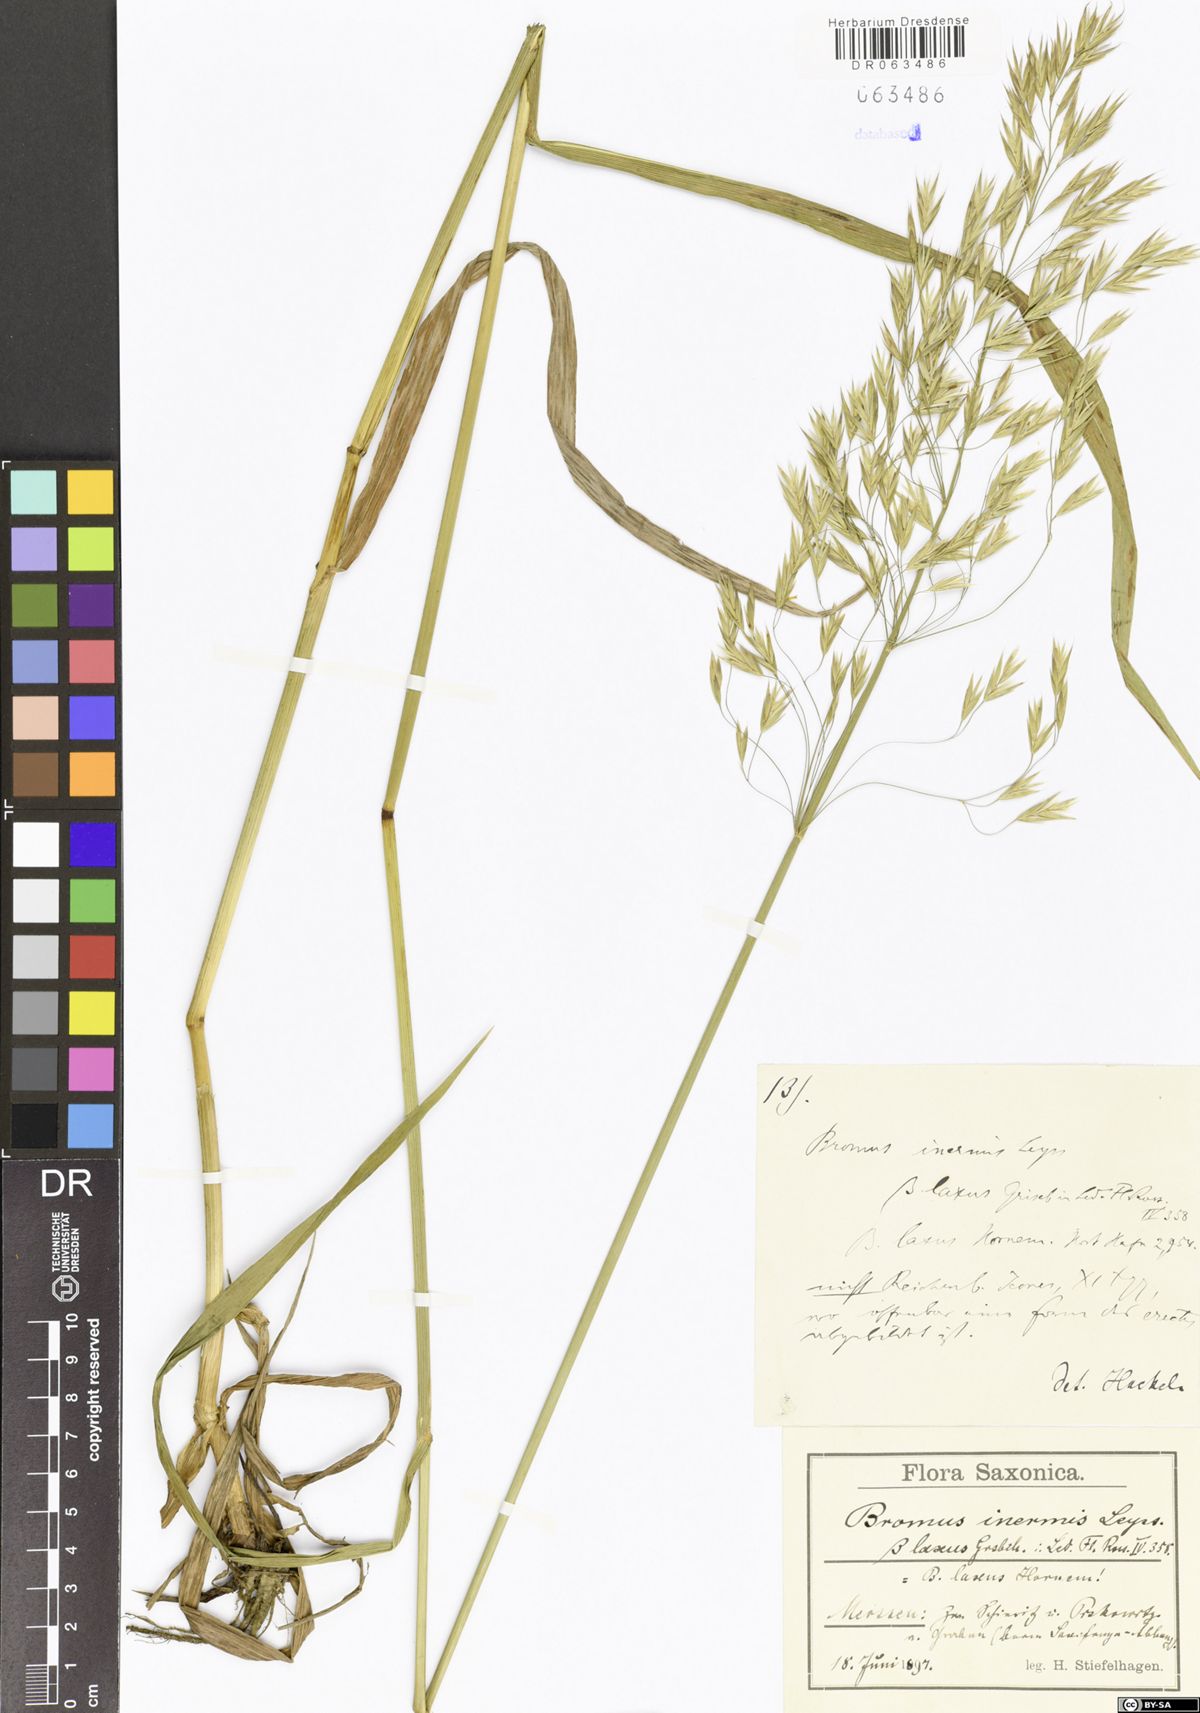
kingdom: Plantae
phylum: Tracheophyta
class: Liliopsida
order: Poales
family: Poaceae
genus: Bromus
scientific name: Bromus inermis
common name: Smooth brome
